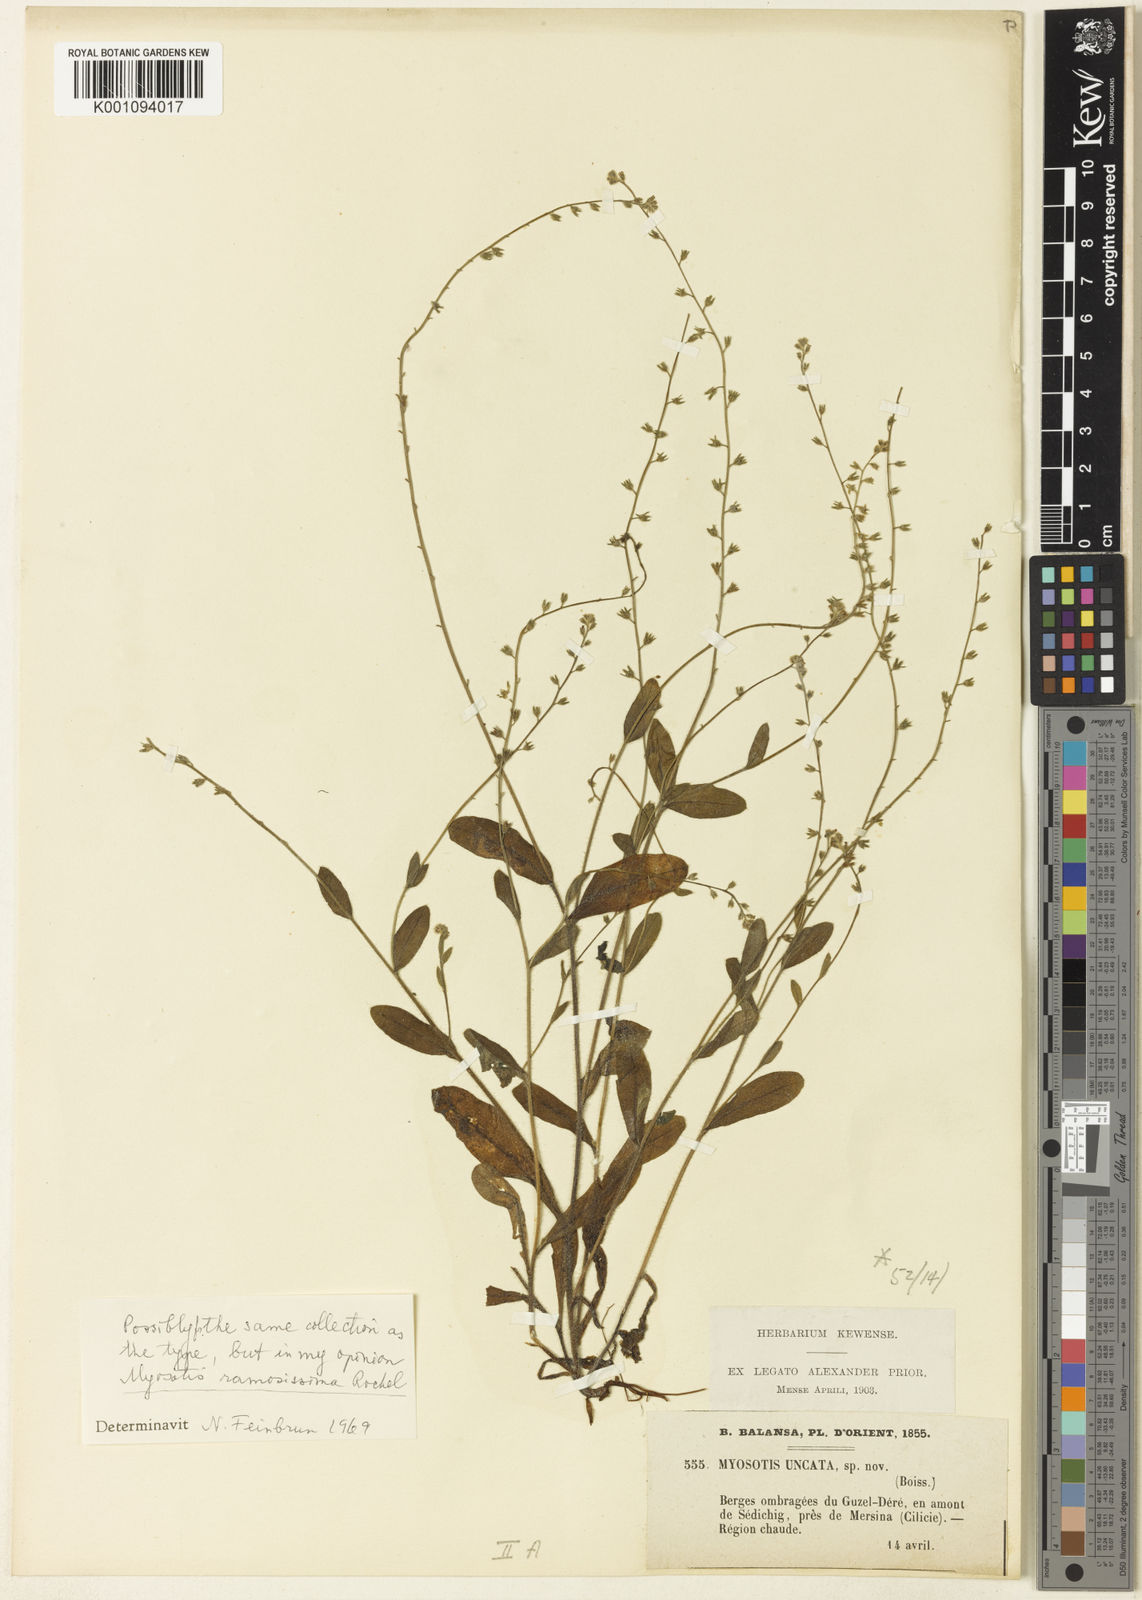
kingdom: Plantae
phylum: Tracheophyta
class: Magnoliopsida
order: Boraginales
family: Boraginaceae
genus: Myosotis
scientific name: Myosotis
